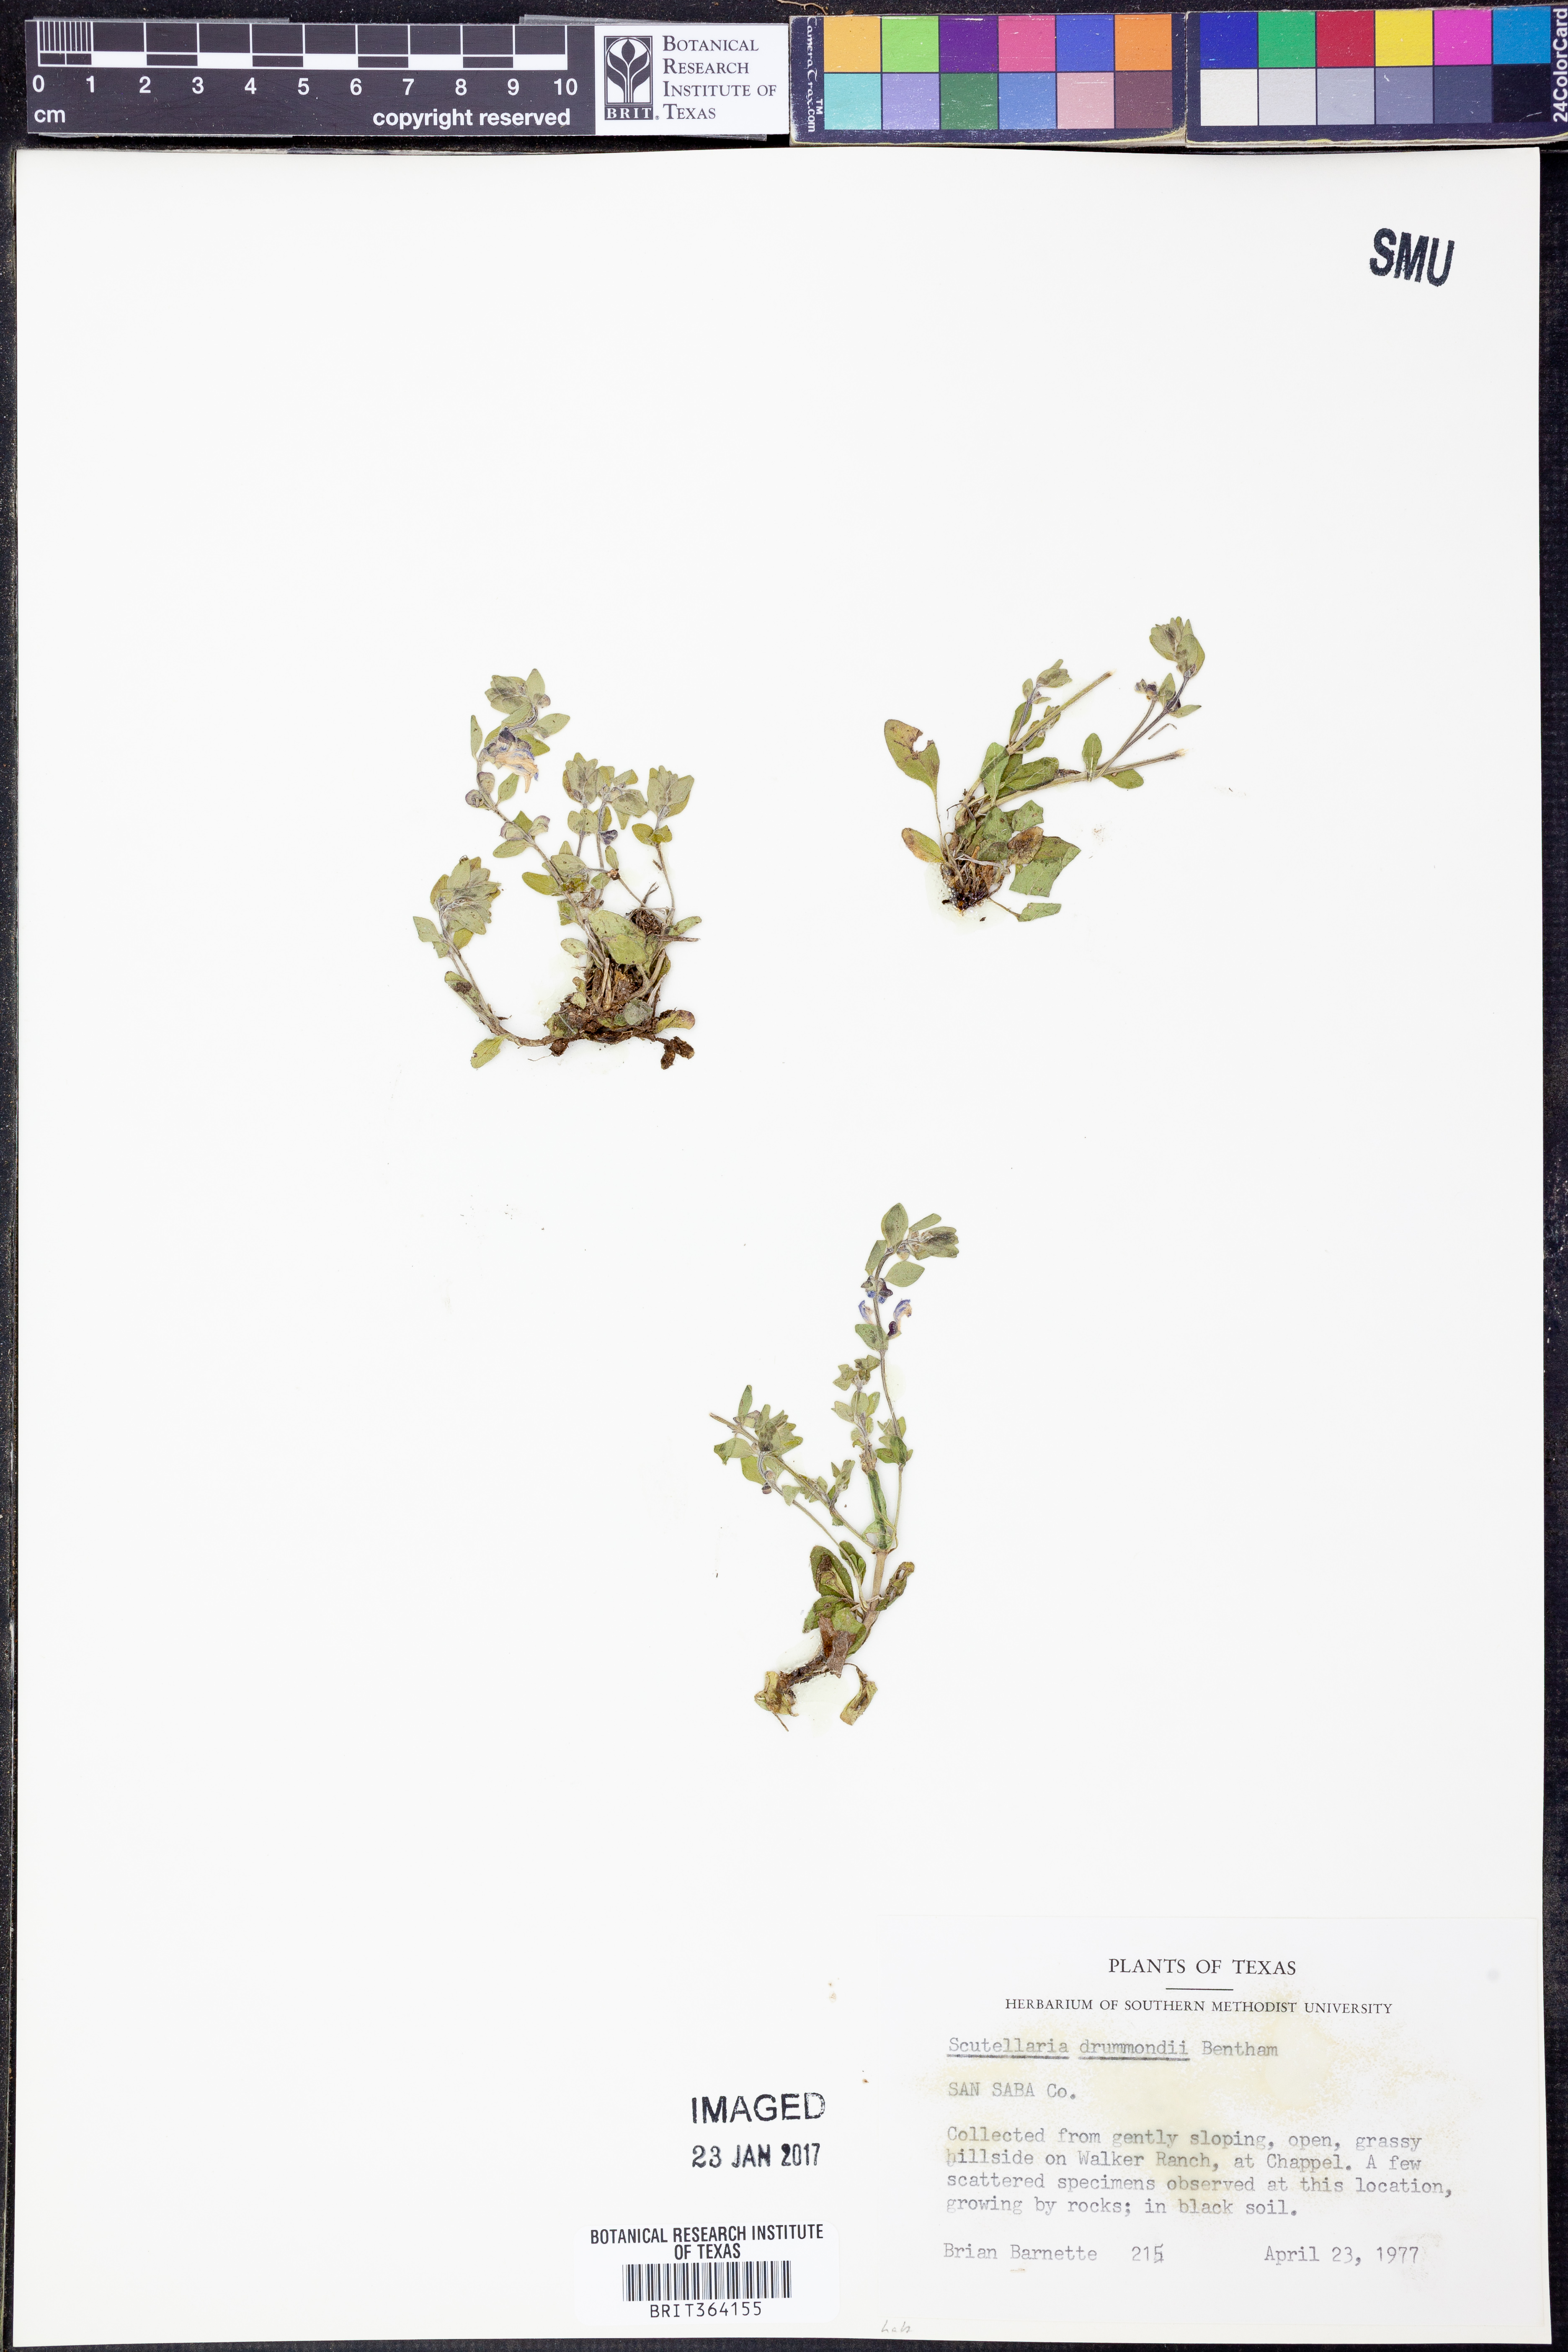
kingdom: Plantae
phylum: Tracheophyta
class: Magnoliopsida
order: Lamiales
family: Lamiaceae
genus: Scutellaria
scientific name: Scutellaria drummondii
